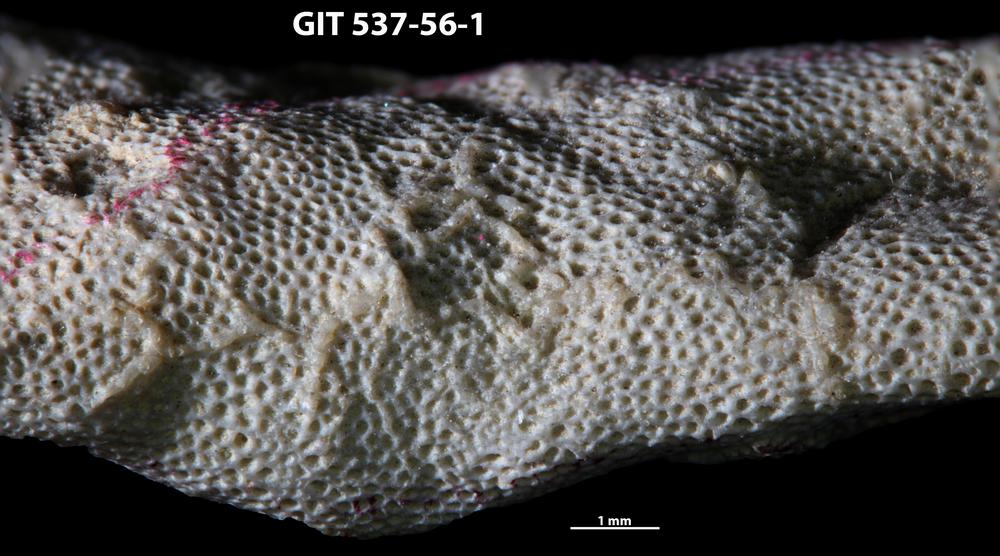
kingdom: Animalia
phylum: Bryozoa
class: Stenolaemata
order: Cyclostomatida
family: Corynotrypidae
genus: Corynotrypa
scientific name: Corynotrypa
